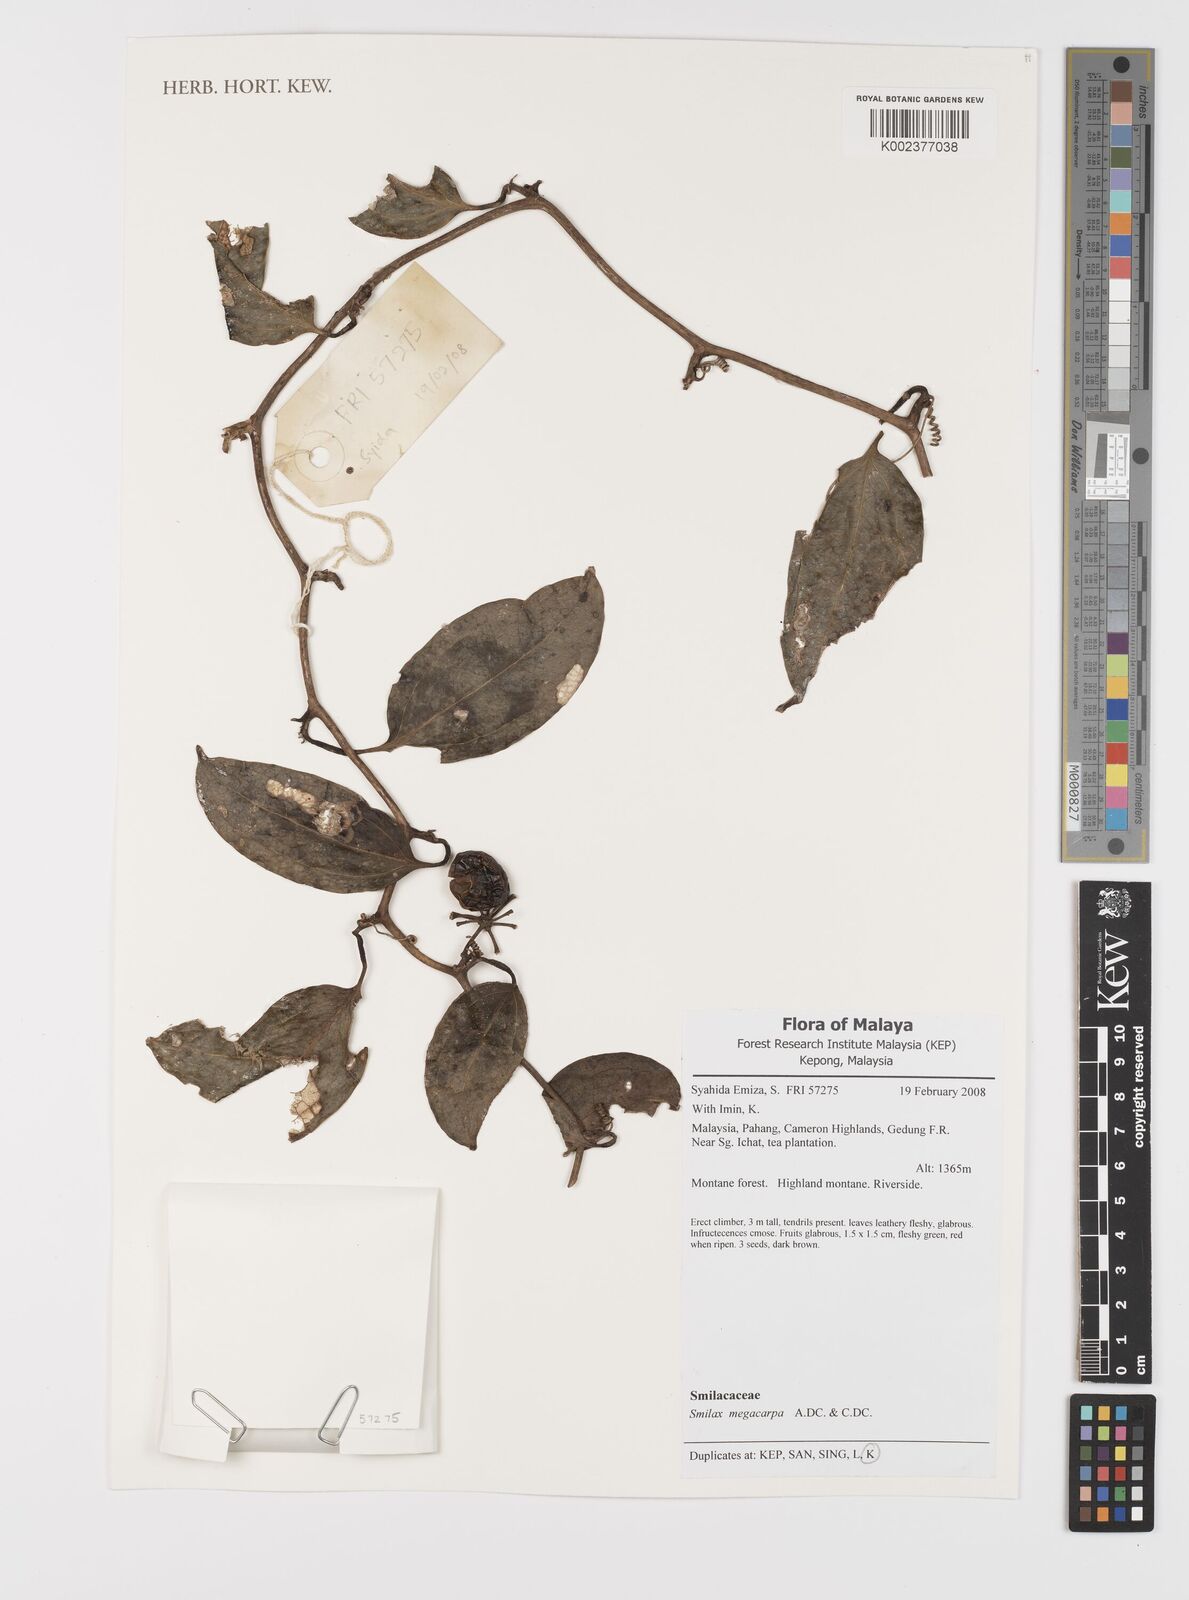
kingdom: Plantae
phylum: Tracheophyta
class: Liliopsida
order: Liliales
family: Smilacaceae
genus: Smilax
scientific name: Smilax megacarpa
